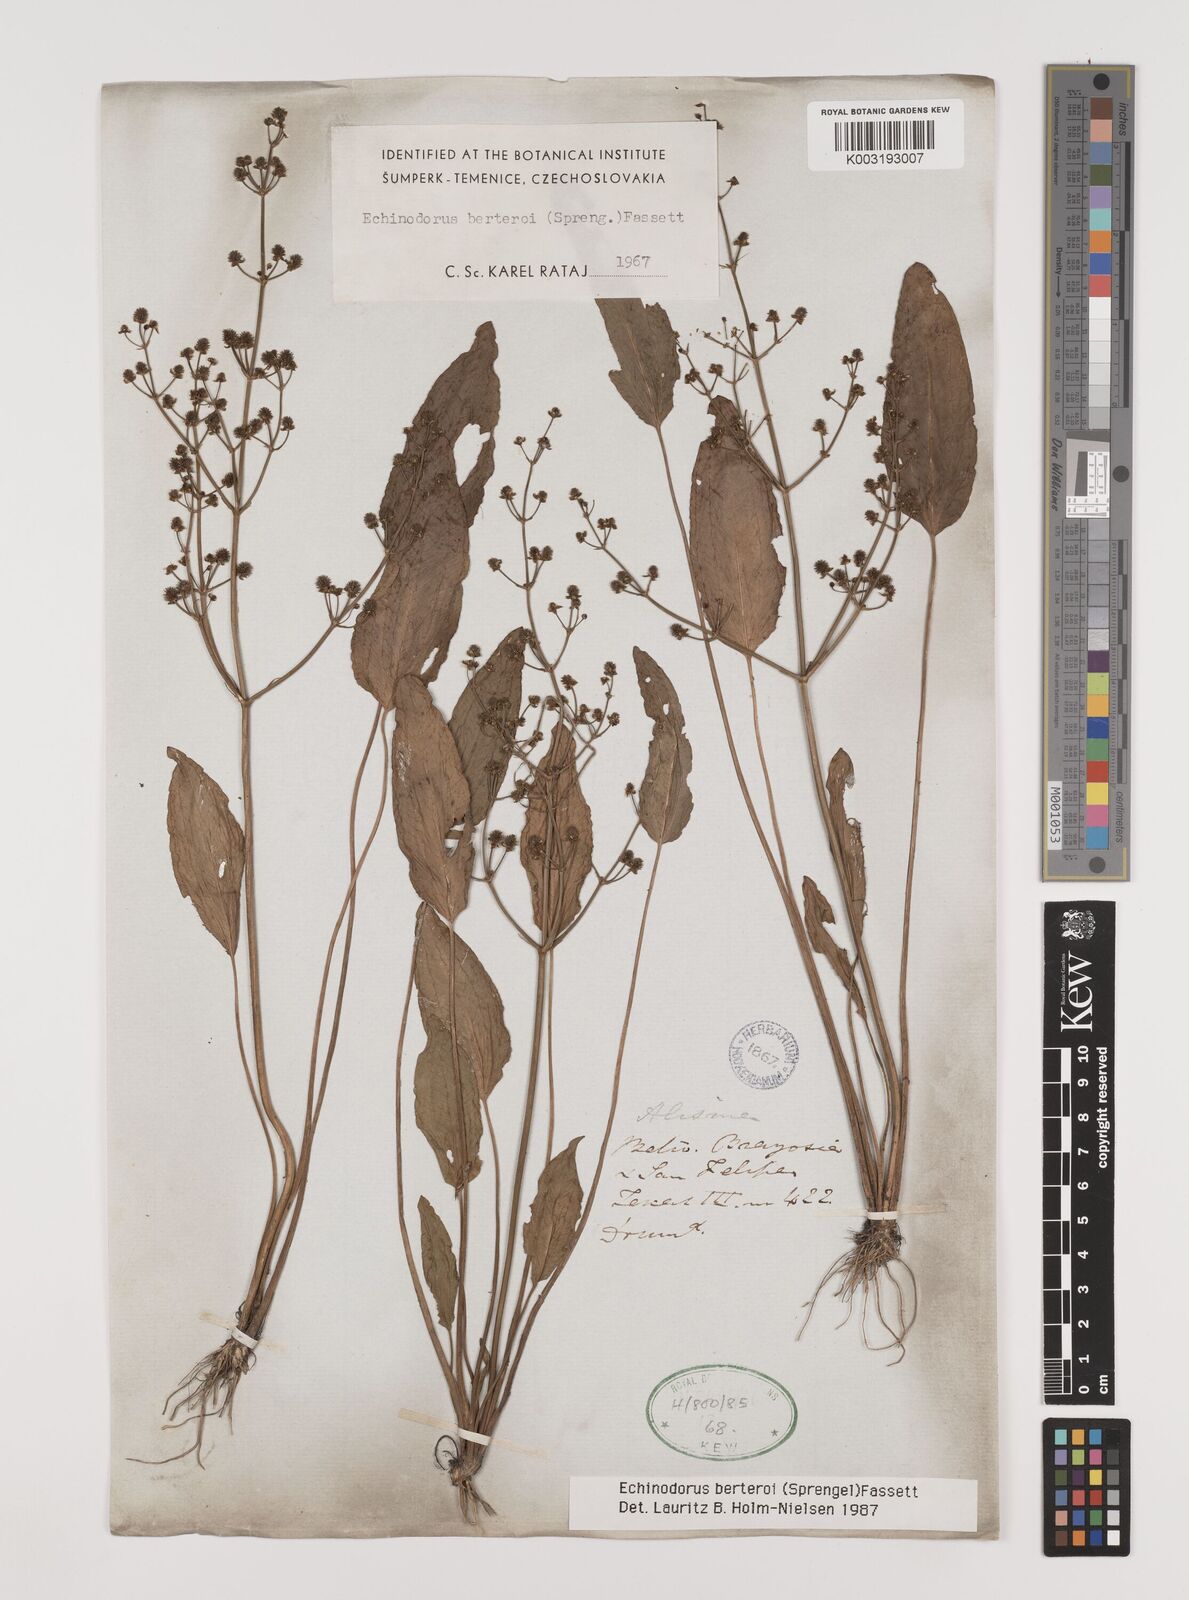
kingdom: Plantae
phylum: Tracheophyta
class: Liliopsida
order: Alismatales
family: Alismataceae
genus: Echinodorus
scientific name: Echinodorus berteroi
